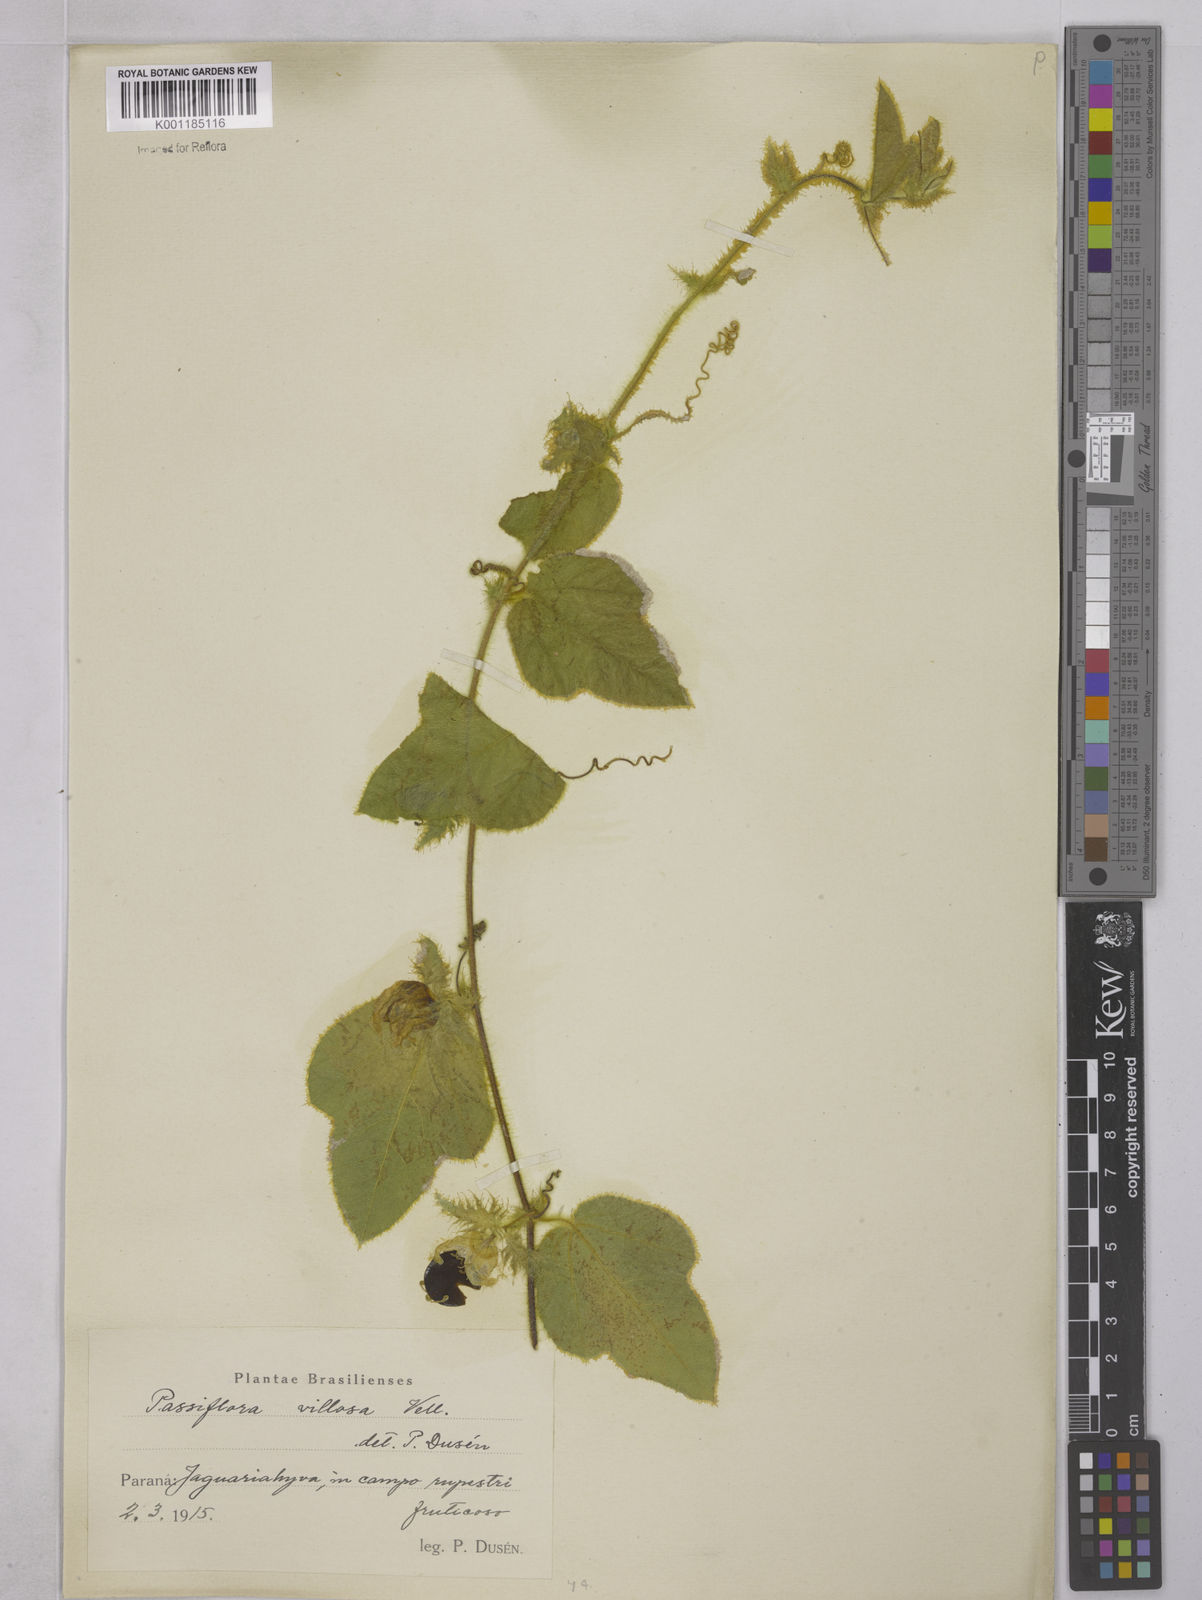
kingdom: Plantae
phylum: Tracheophyta
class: Magnoliopsida
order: Malpighiales
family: Passifloraceae
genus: Passiflora
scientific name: Passiflora villosa
